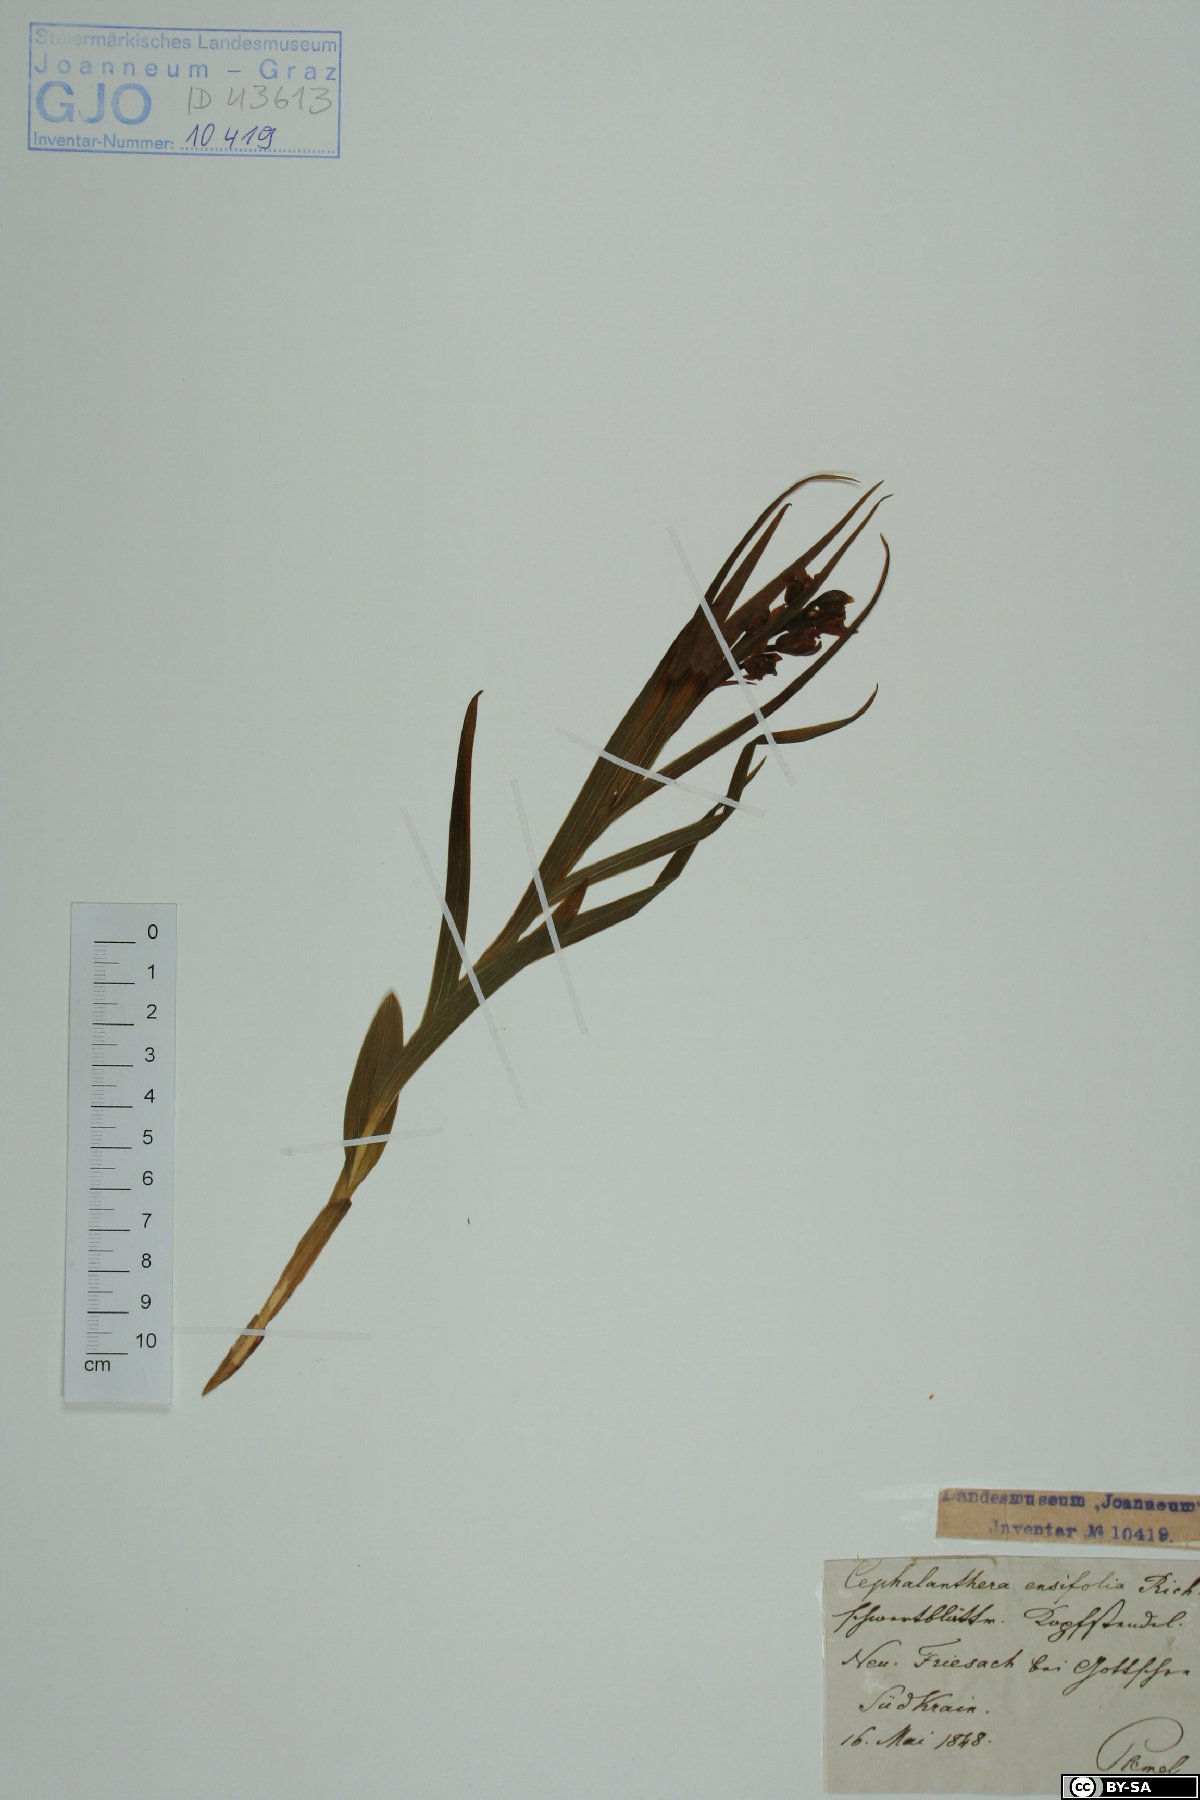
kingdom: Plantae
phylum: Tracheophyta
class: Liliopsida
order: Asparagales
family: Orchidaceae
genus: Cephalanthera
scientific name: Cephalanthera longifolia
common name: Narrow-leaved helleborine
